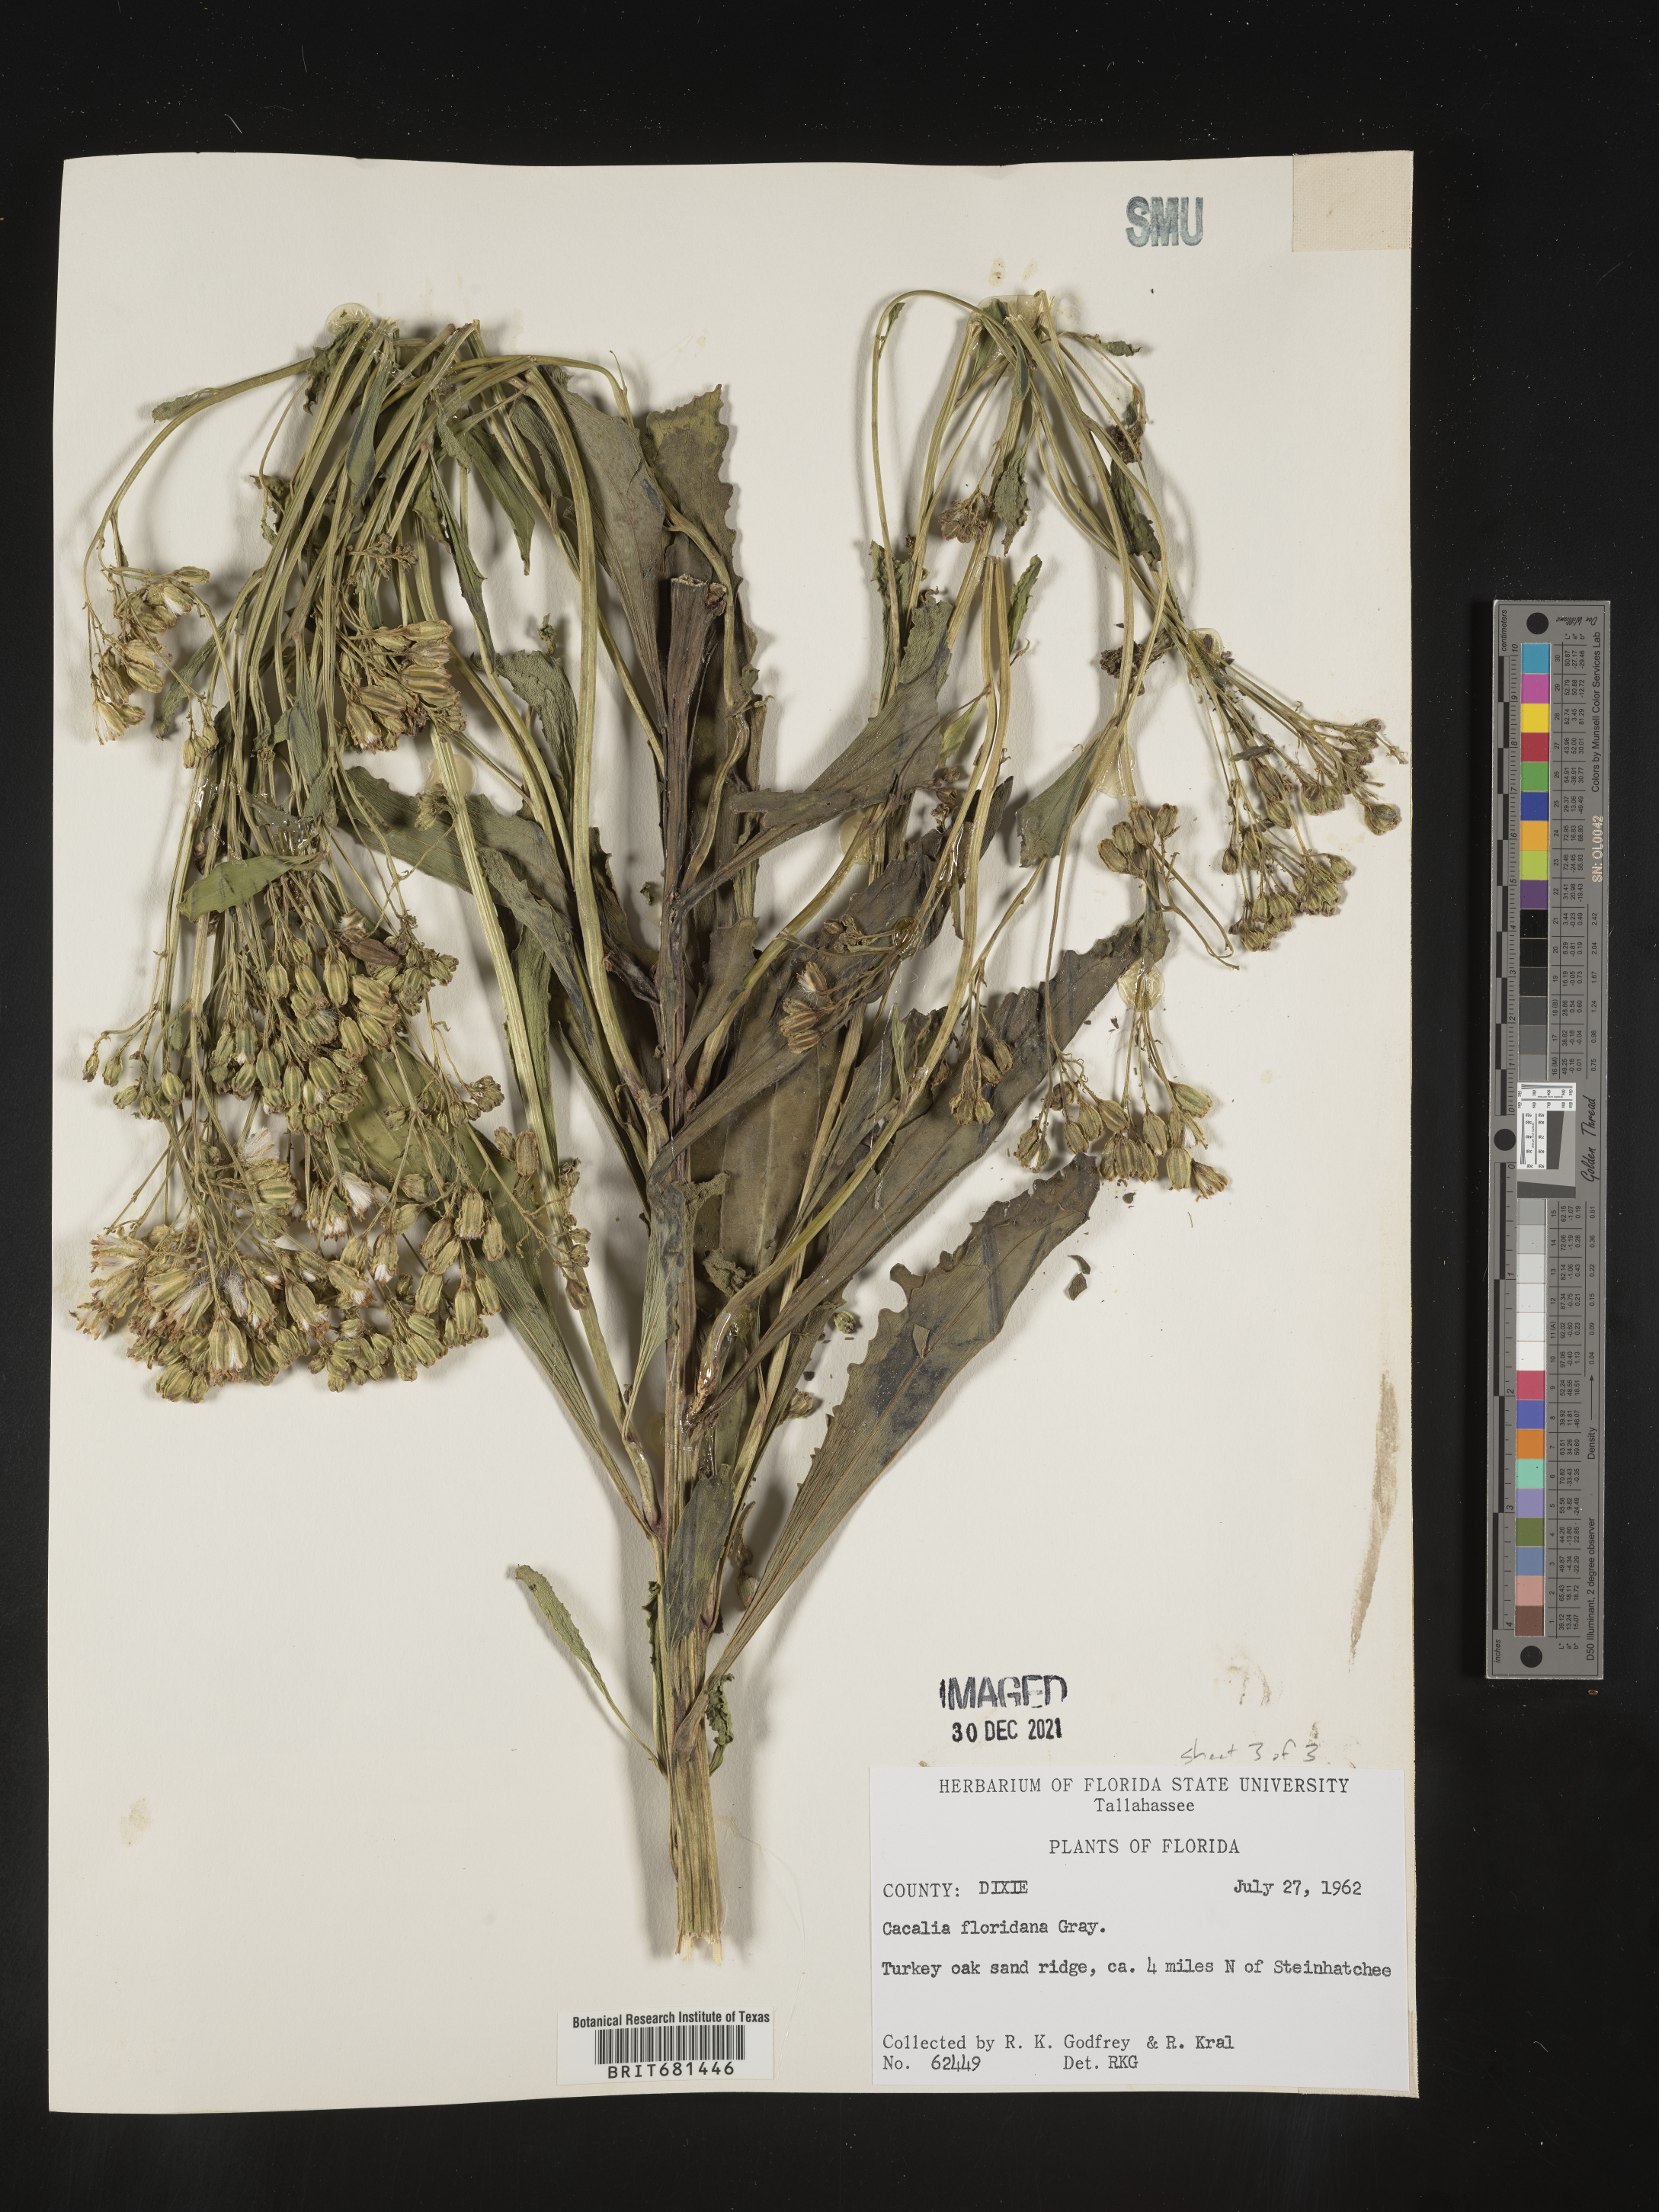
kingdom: Plantae
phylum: Tracheophyta
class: Magnoliopsida
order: Asterales
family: Asteraceae
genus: Arnoglossum
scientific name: Arnoglossum floridanum
